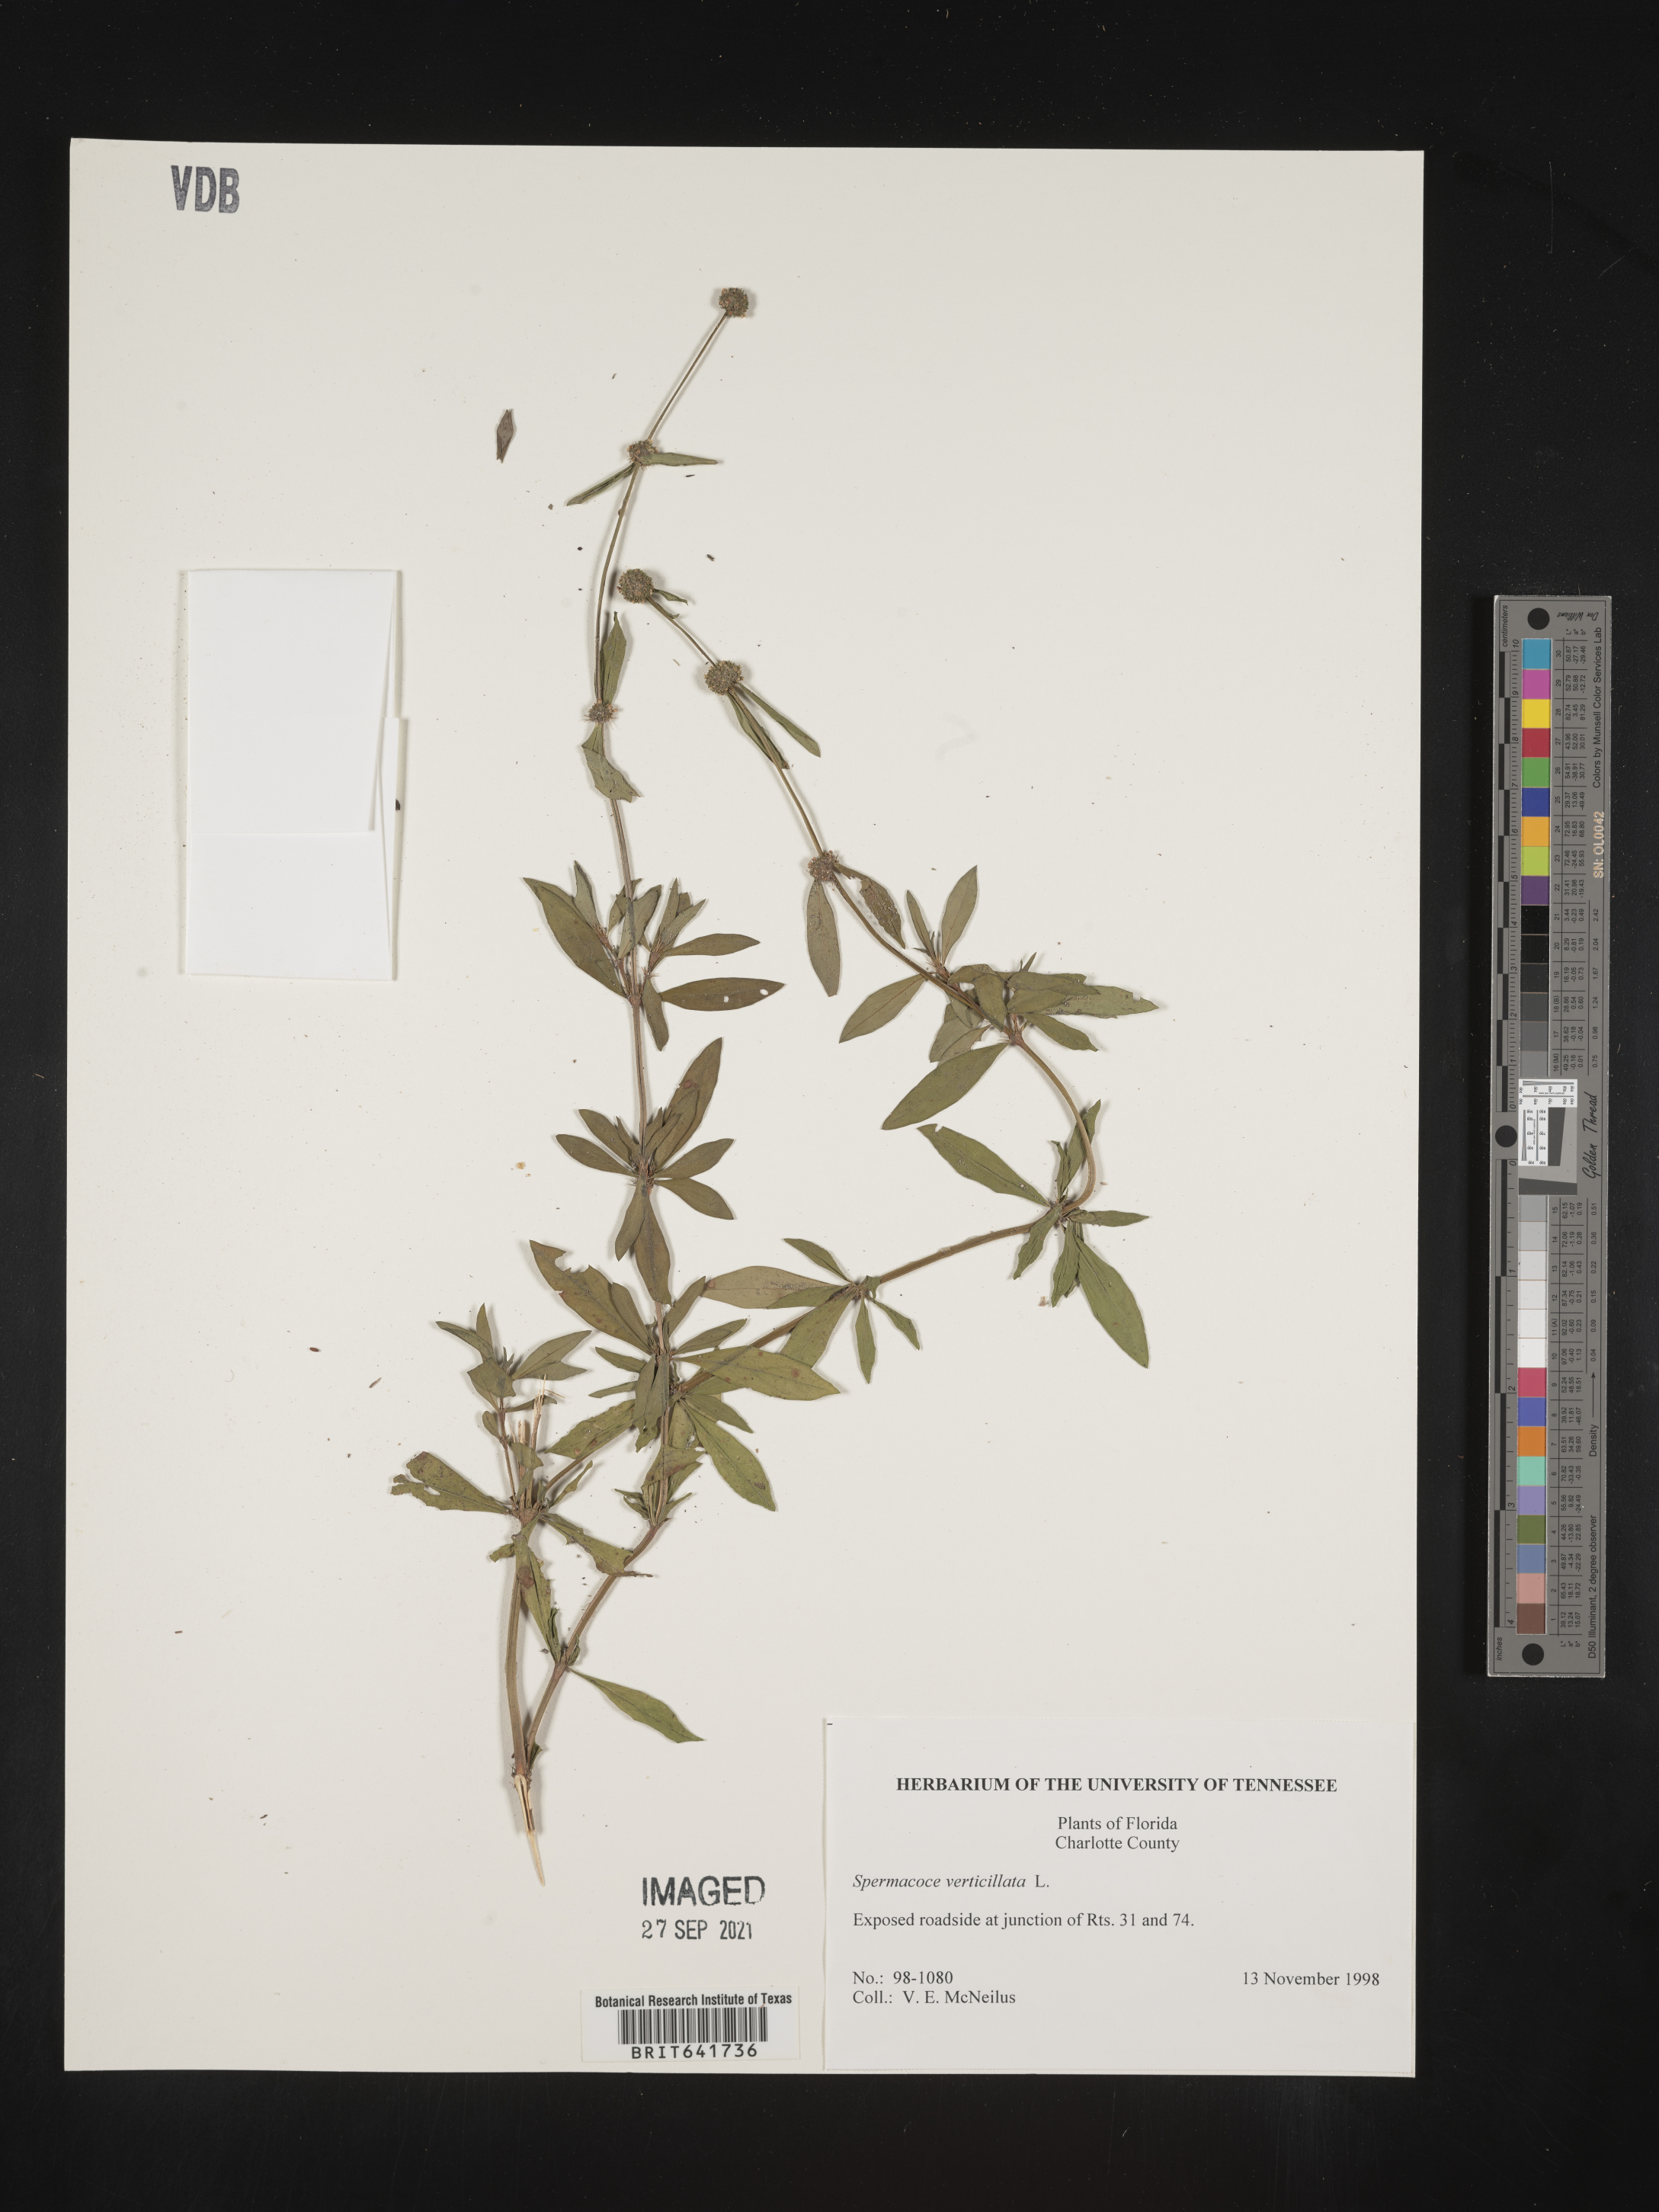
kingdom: Plantae
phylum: Tracheophyta
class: Magnoliopsida
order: Gentianales
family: Rubiaceae
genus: Spermacoce
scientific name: Spermacoce verticillata
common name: Shrubby false buttonweed
